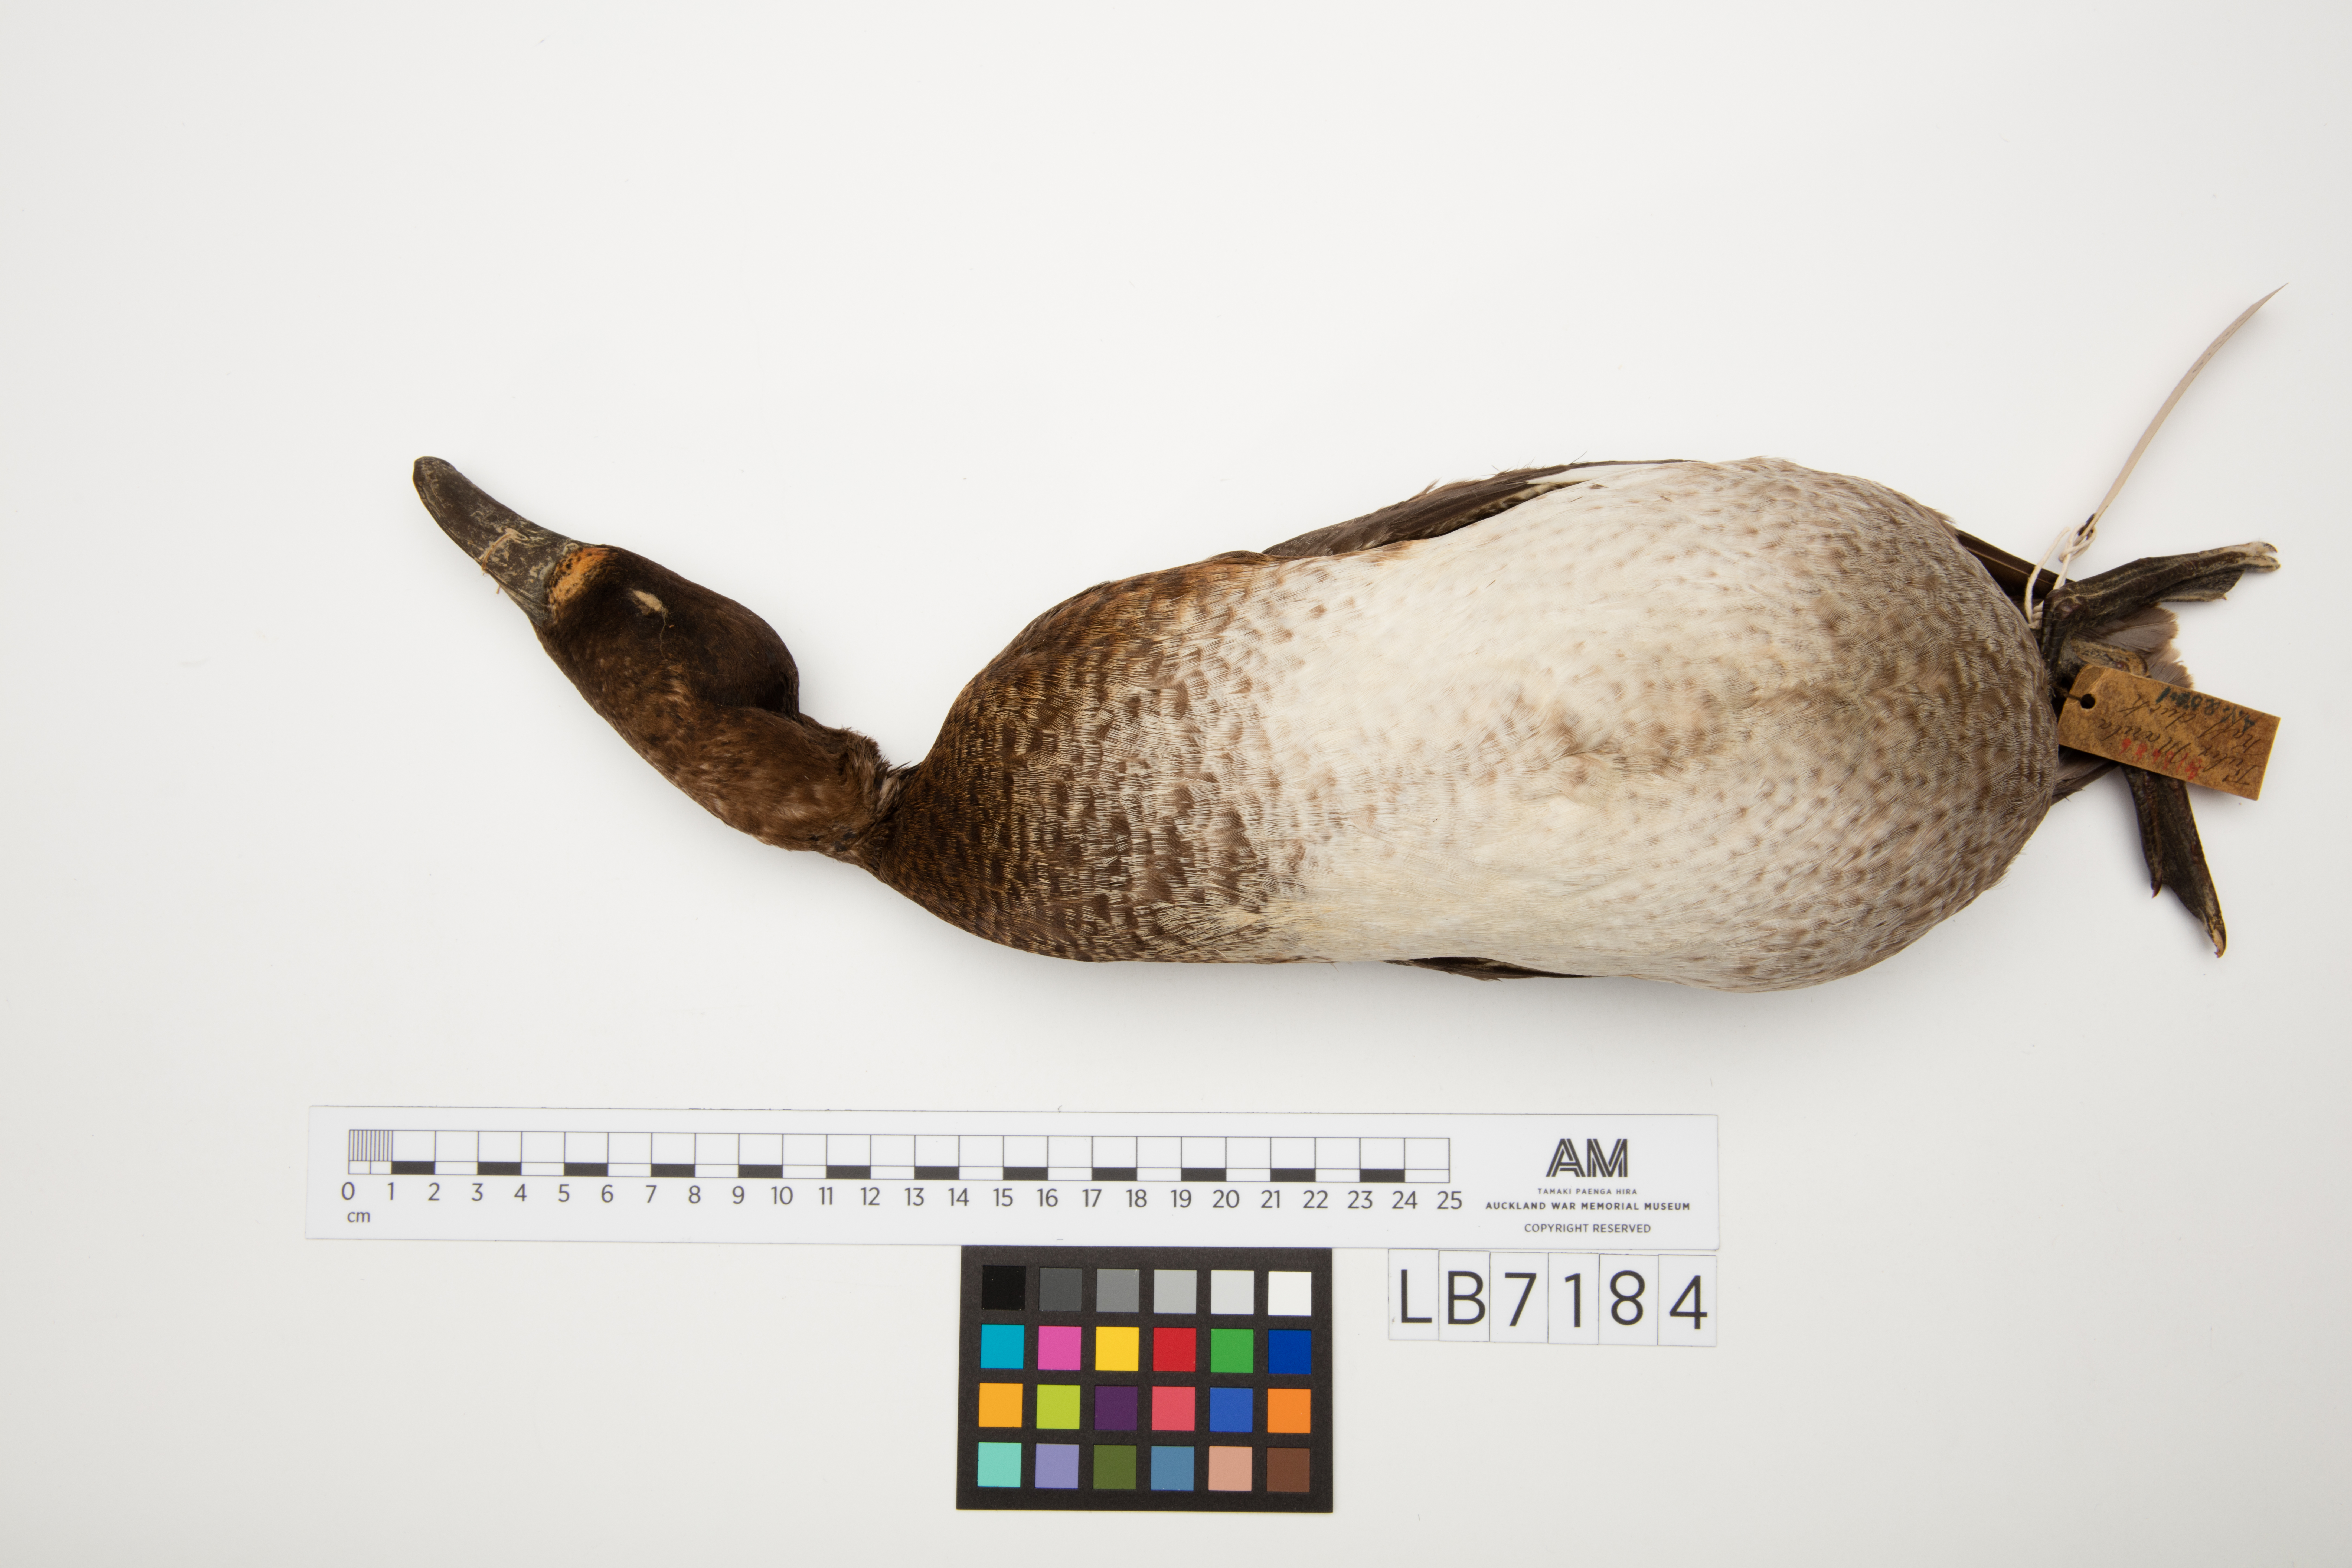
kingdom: Animalia
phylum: Chordata
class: Aves
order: Anseriformes
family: Anatidae
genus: Aythya
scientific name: Aythya marila
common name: Greater scaup
